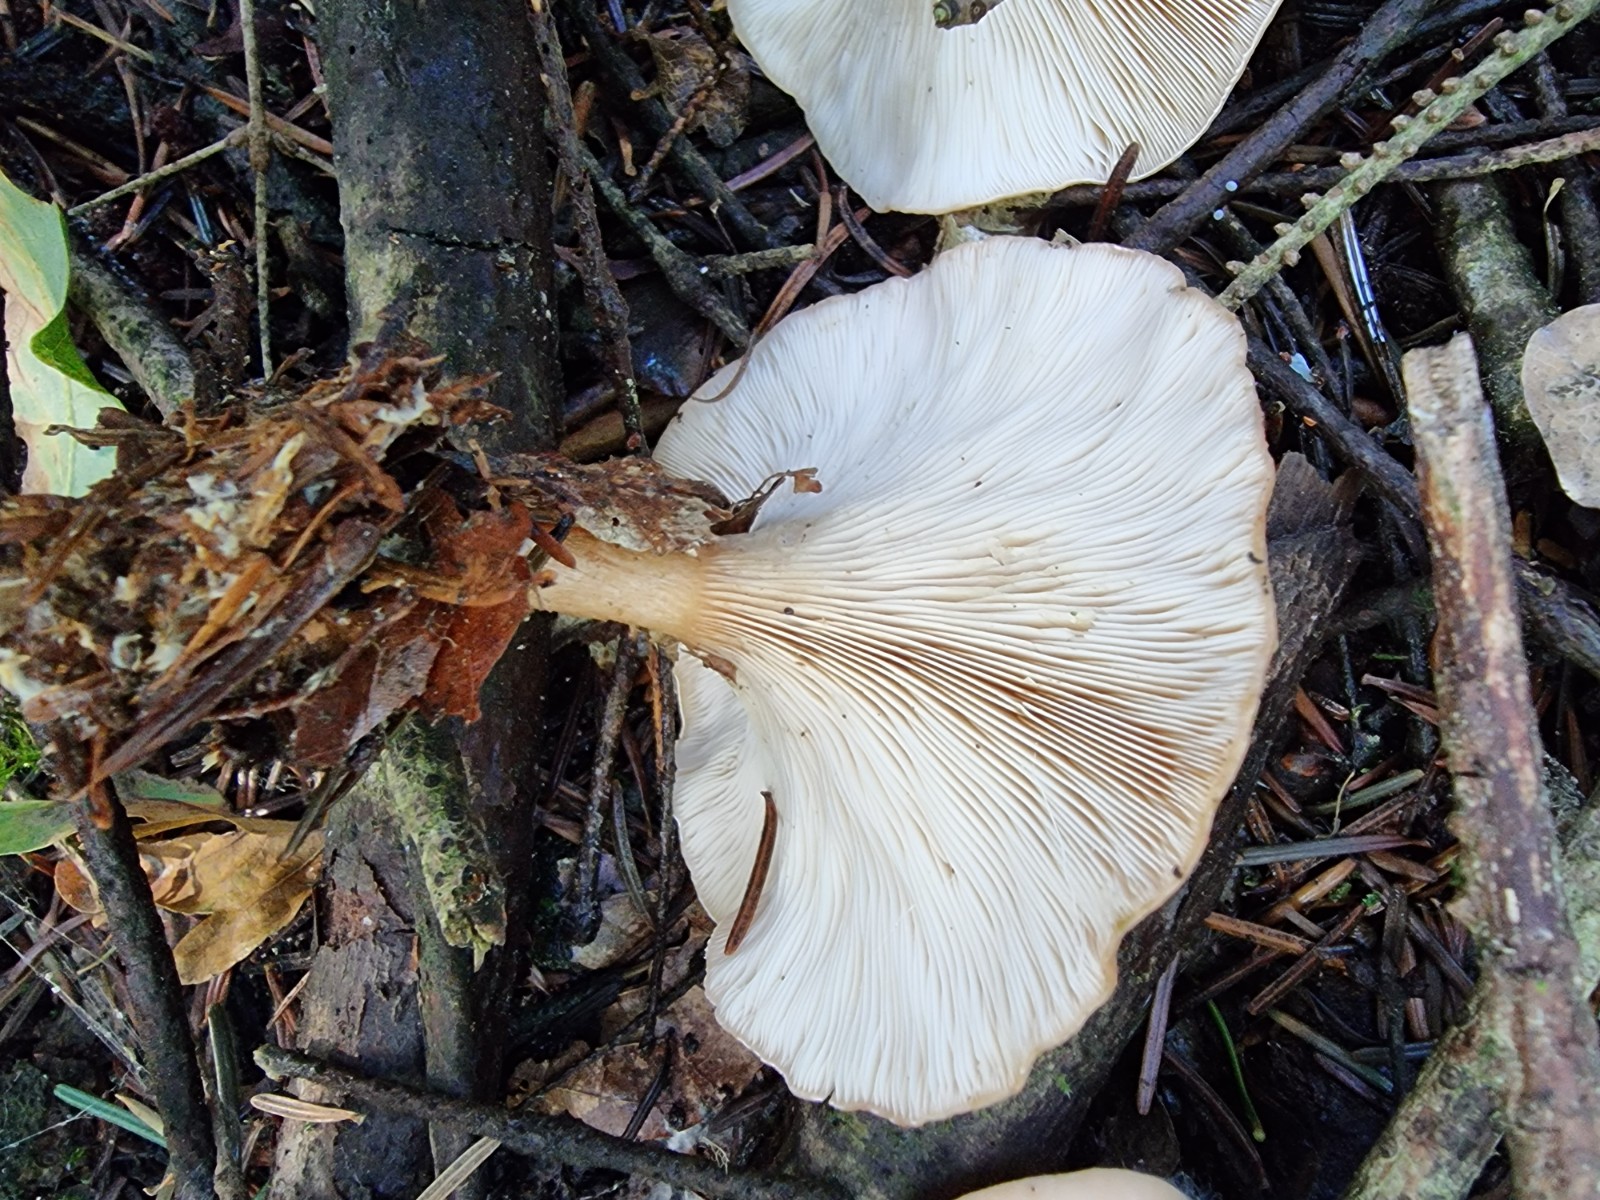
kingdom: Fungi
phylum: Basidiomycota
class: Agaricomycetes
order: Agaricales
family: Tricholomataceae
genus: Paralepista
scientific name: Paralepista flaccida
